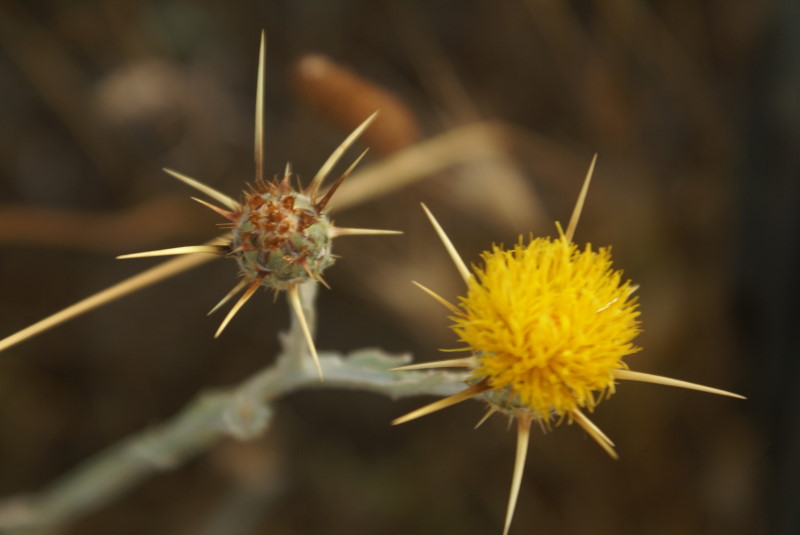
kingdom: Plantae
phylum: Tracheophyta
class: Magnoliopsida
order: Asterales
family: Asteraceae
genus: Centaurea
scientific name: Centaurea solstitialis
